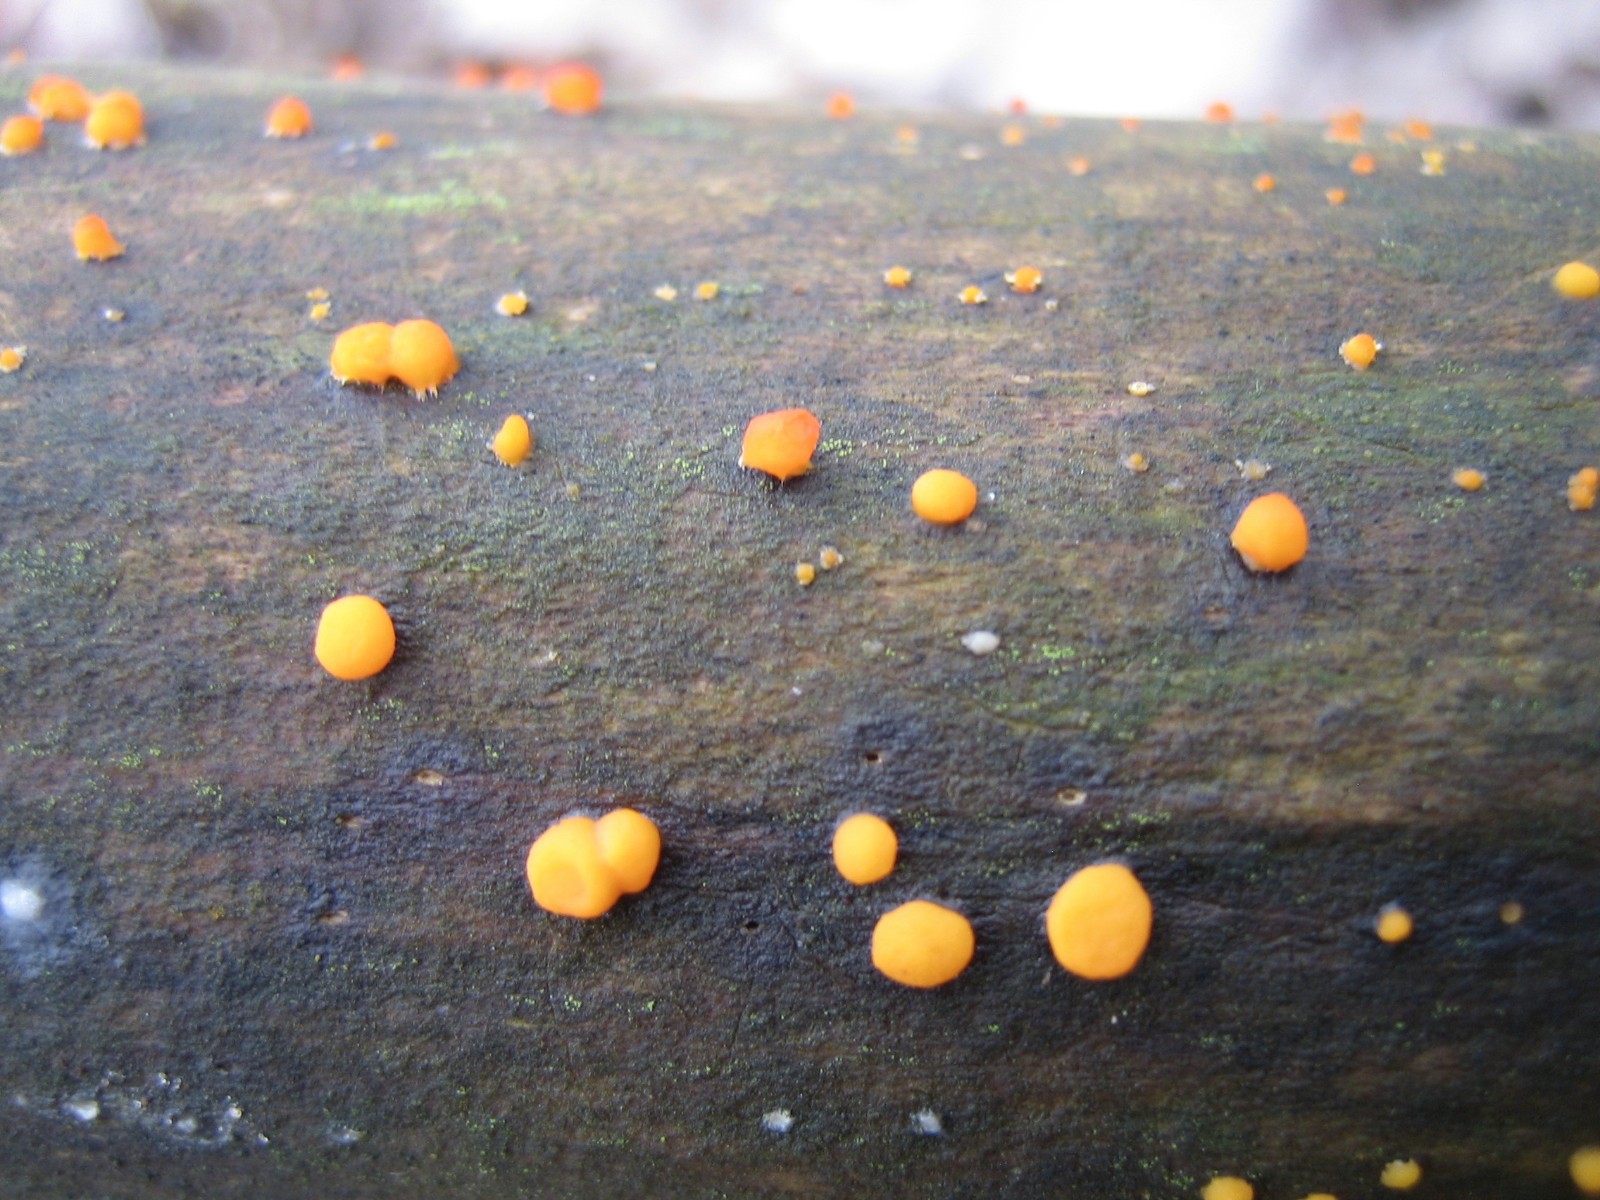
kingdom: Fungi
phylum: Basidiomycota
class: Dacrymycetes
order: Dacrymycetales
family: Dacrymycetaceae
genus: Dacrymyces
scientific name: Dacrymyces stillatus
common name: almindelig tåresvamp
